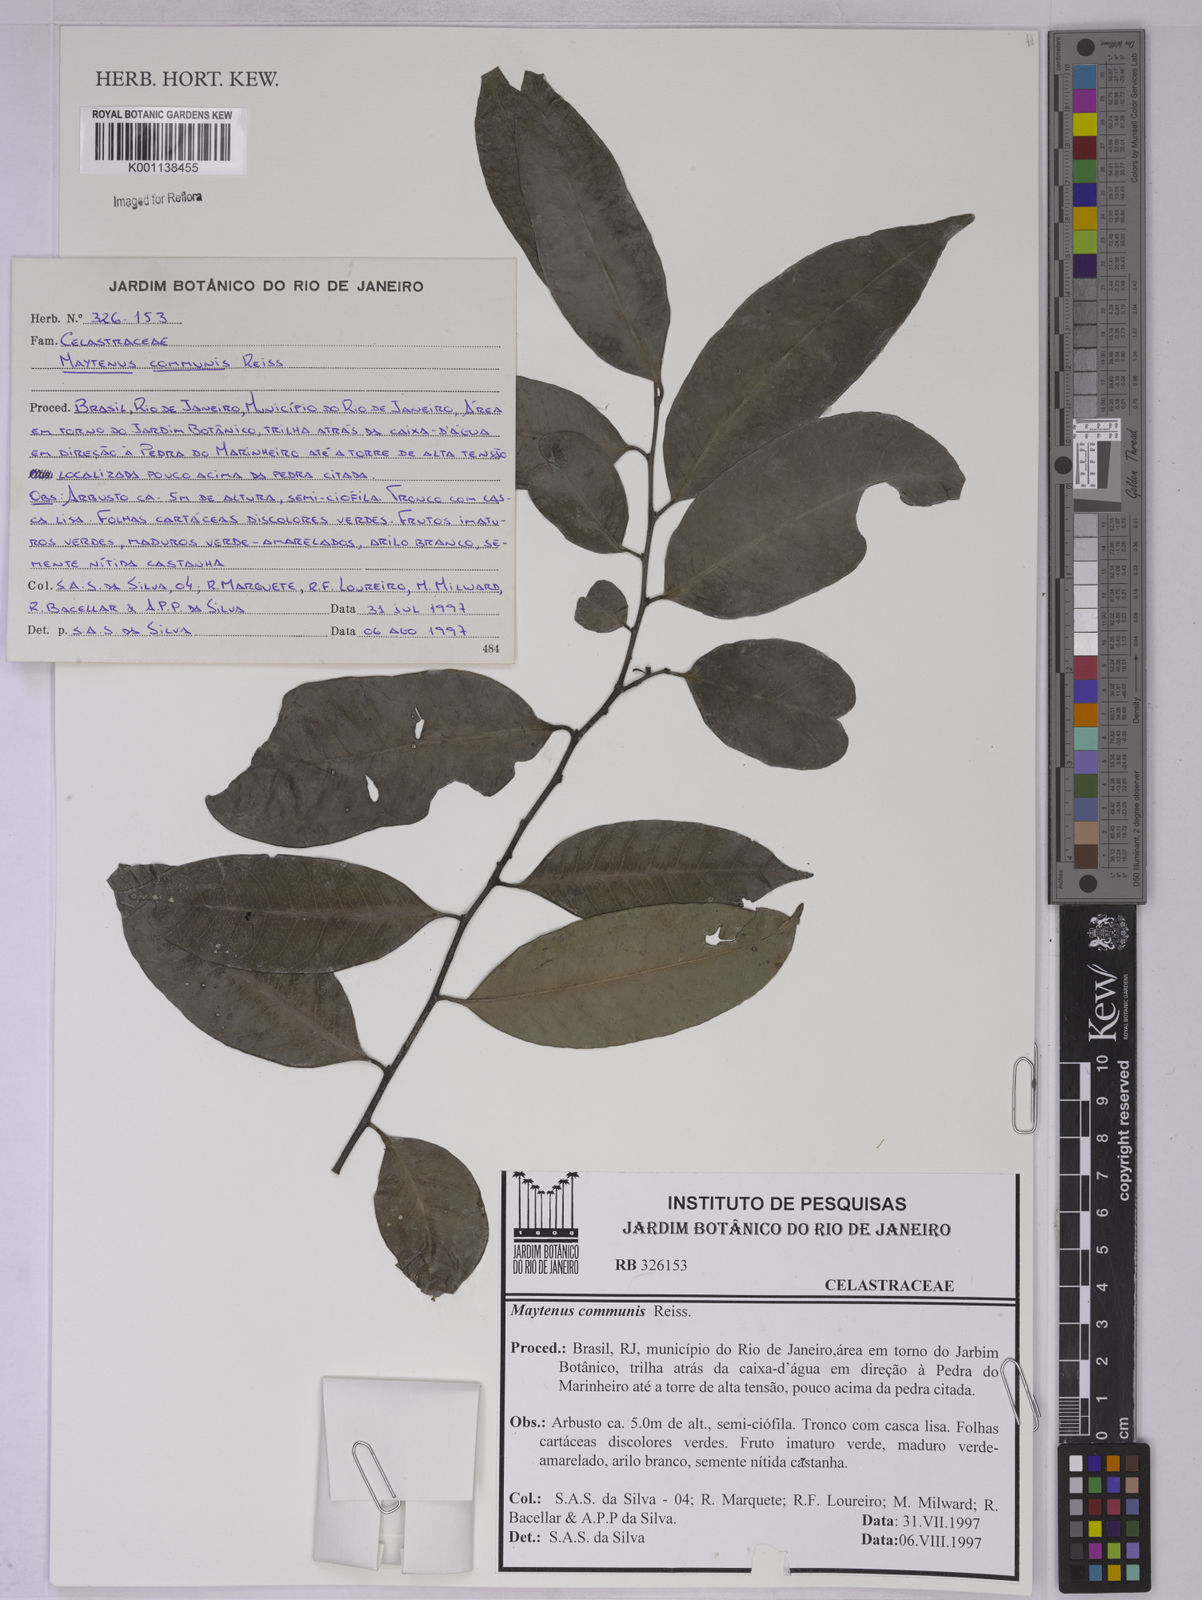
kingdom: Plantae
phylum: Tracheophyta
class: Magnoliopsida
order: Celastrales
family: Celastraceae
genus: Monteverdia
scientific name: Monteverdia communis
